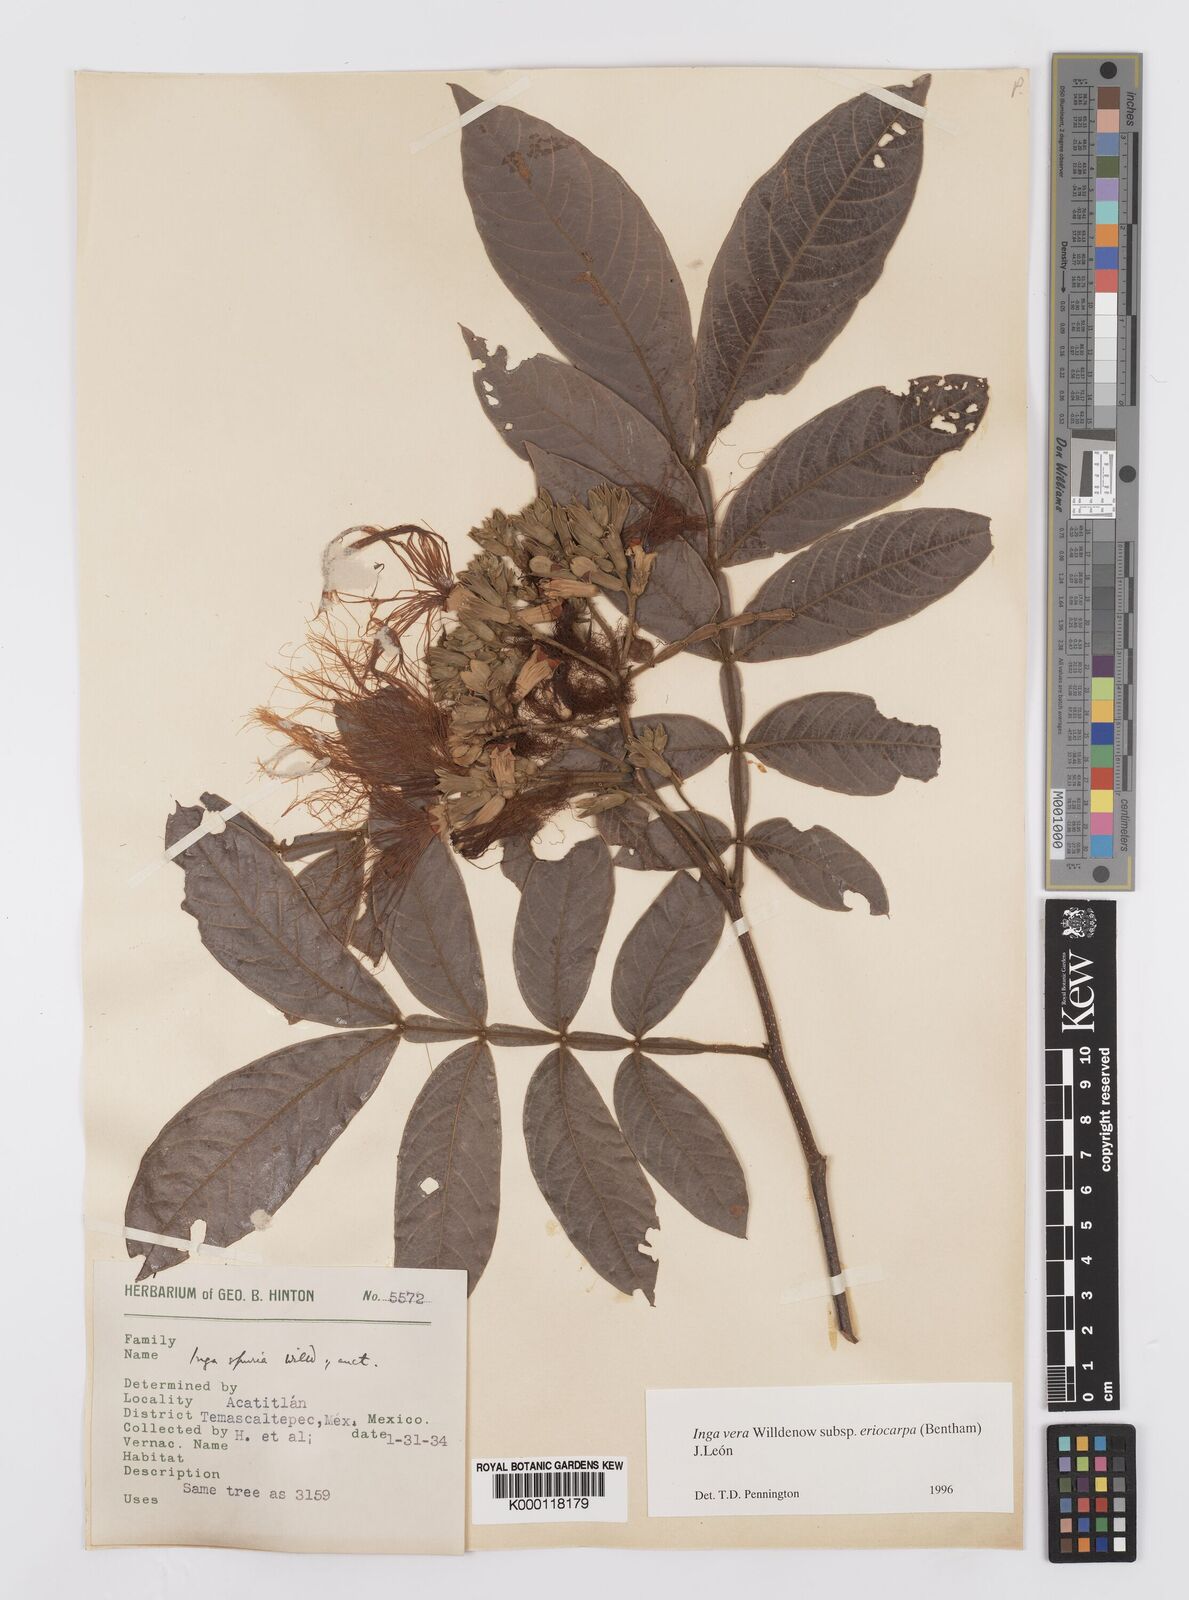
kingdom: Plantae
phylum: Tracheophyta
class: Magnoliopsida
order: Fabales
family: Fabaceae
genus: Inga
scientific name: Inga vera
